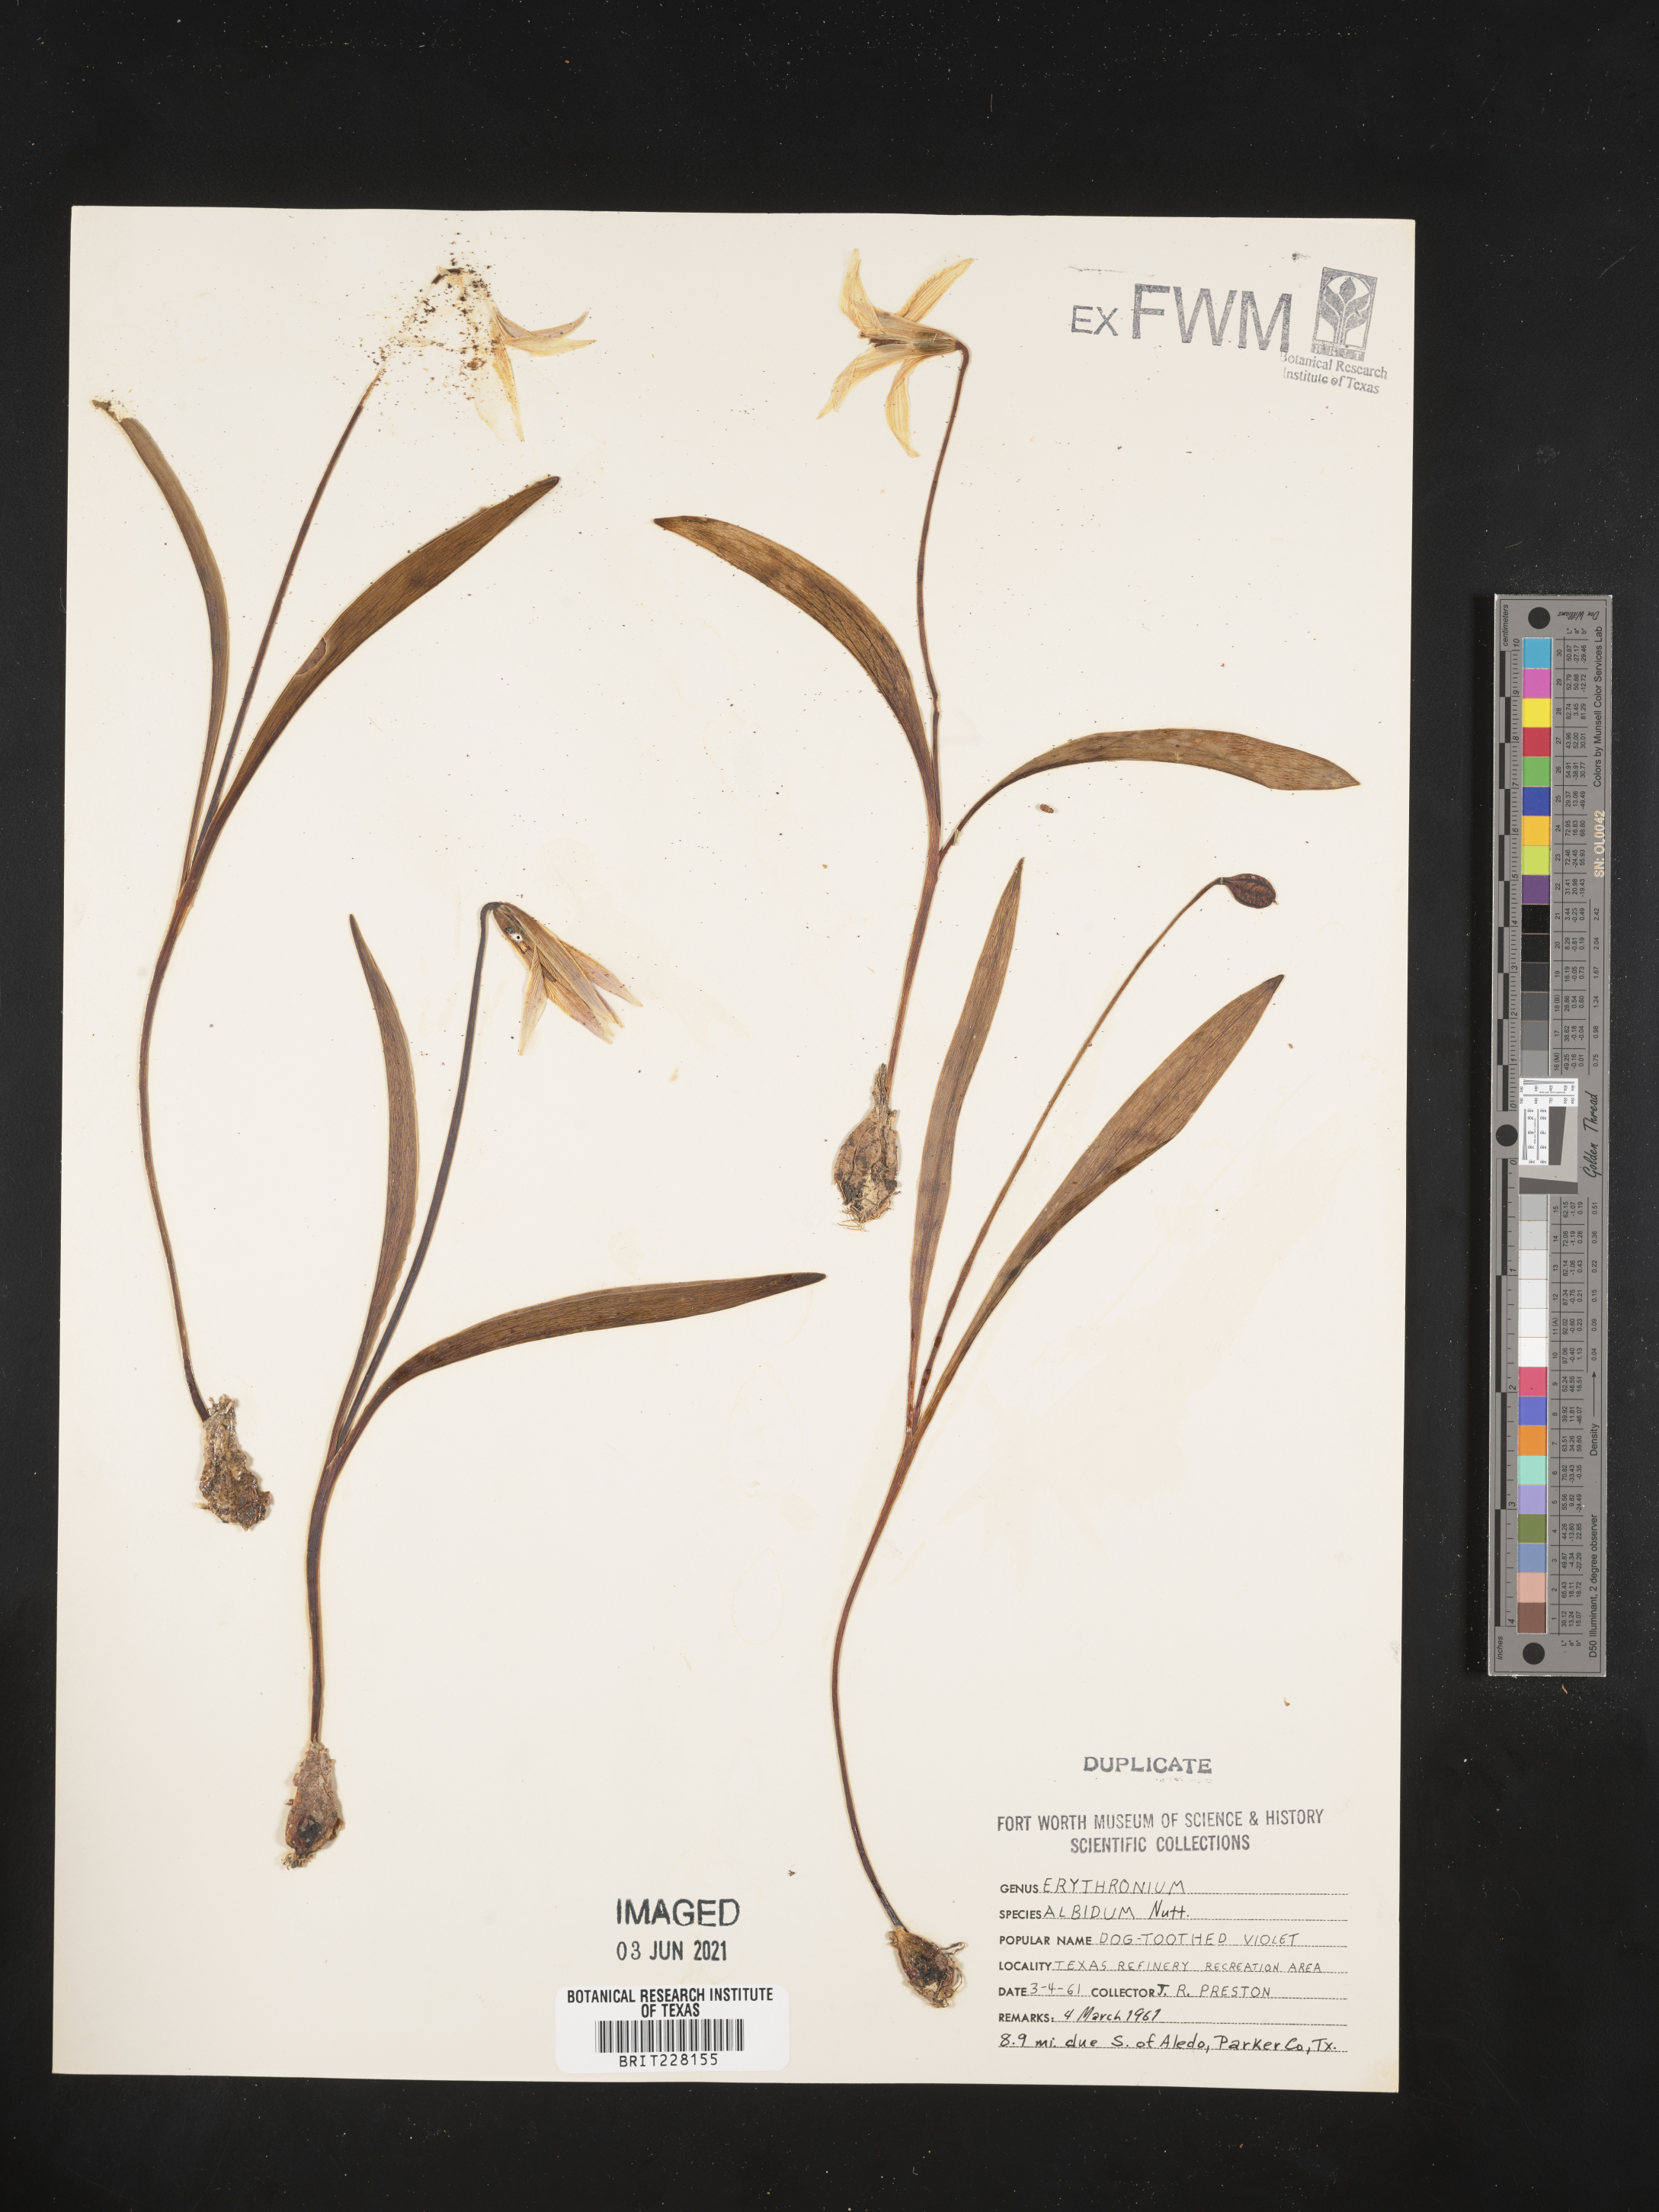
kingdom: Plantae
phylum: Tracheophyta
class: Liliopsida
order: Liliales
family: Liliaceae
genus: Erythronium
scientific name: Erythronium albidum
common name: White trout-lily
